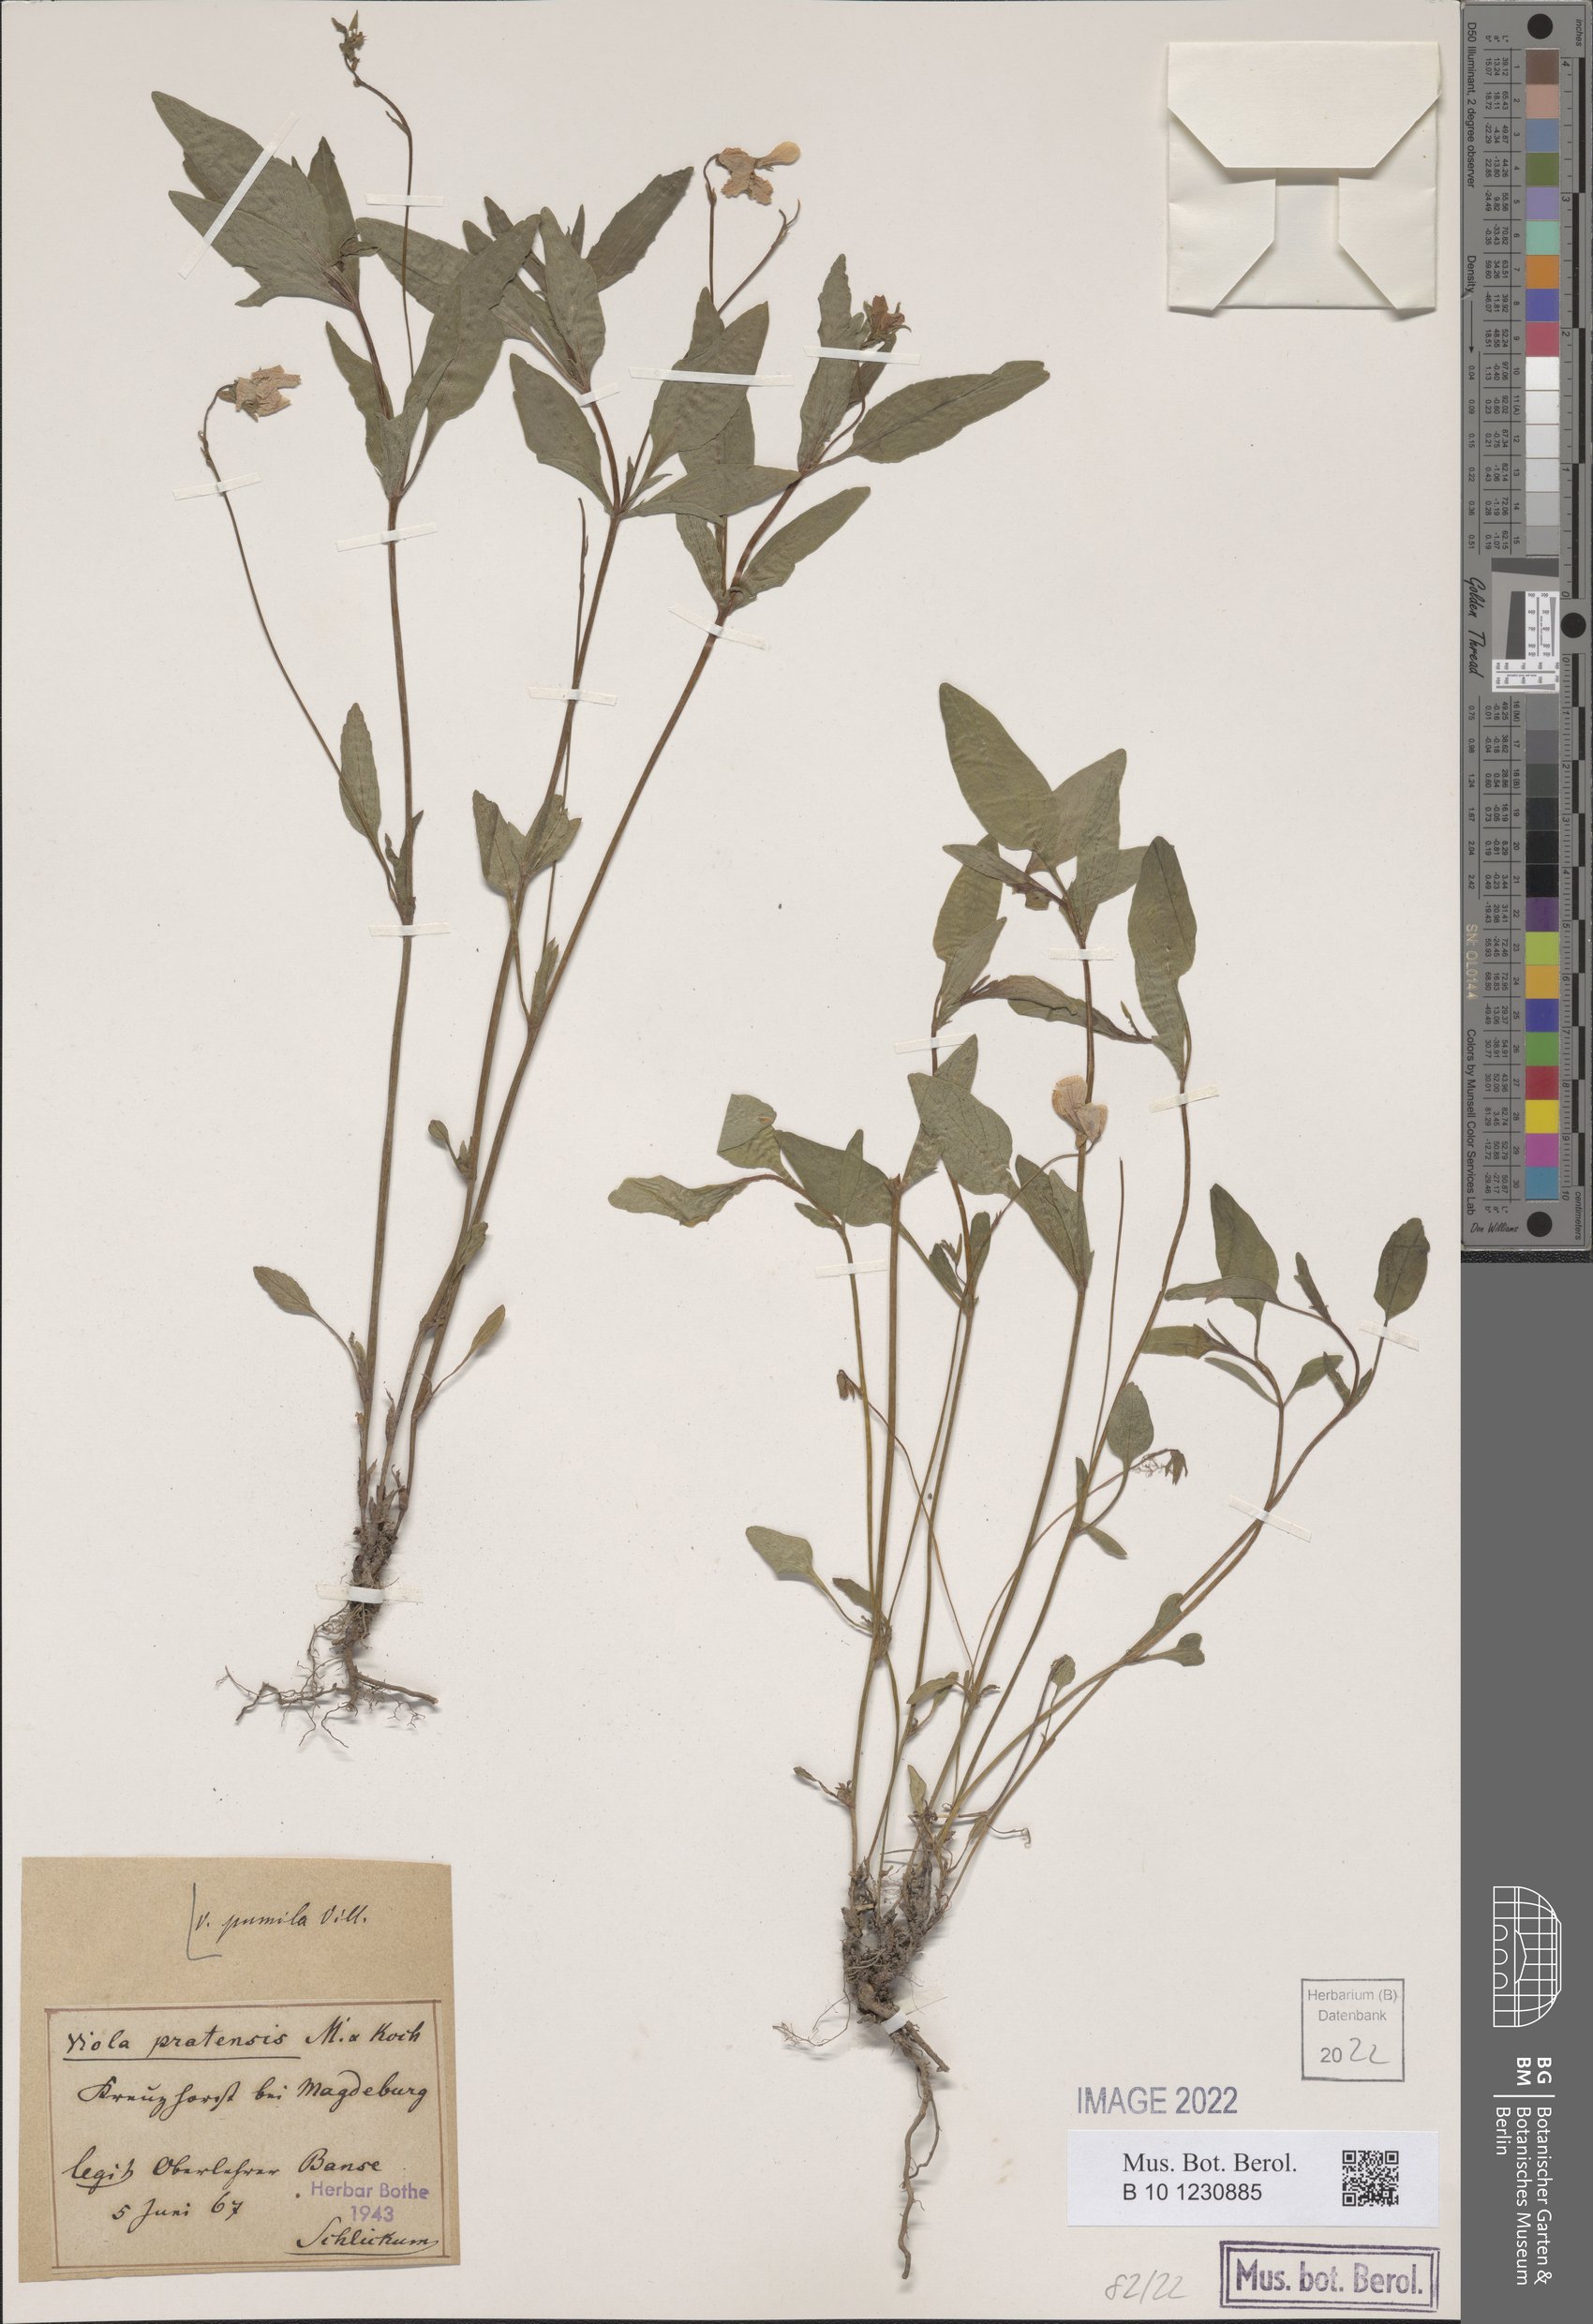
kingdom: Plantae
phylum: Tracheophyta
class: Magnoliopsida
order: Malpighiales
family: Violaceae
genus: Viola
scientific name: Viola pumila
